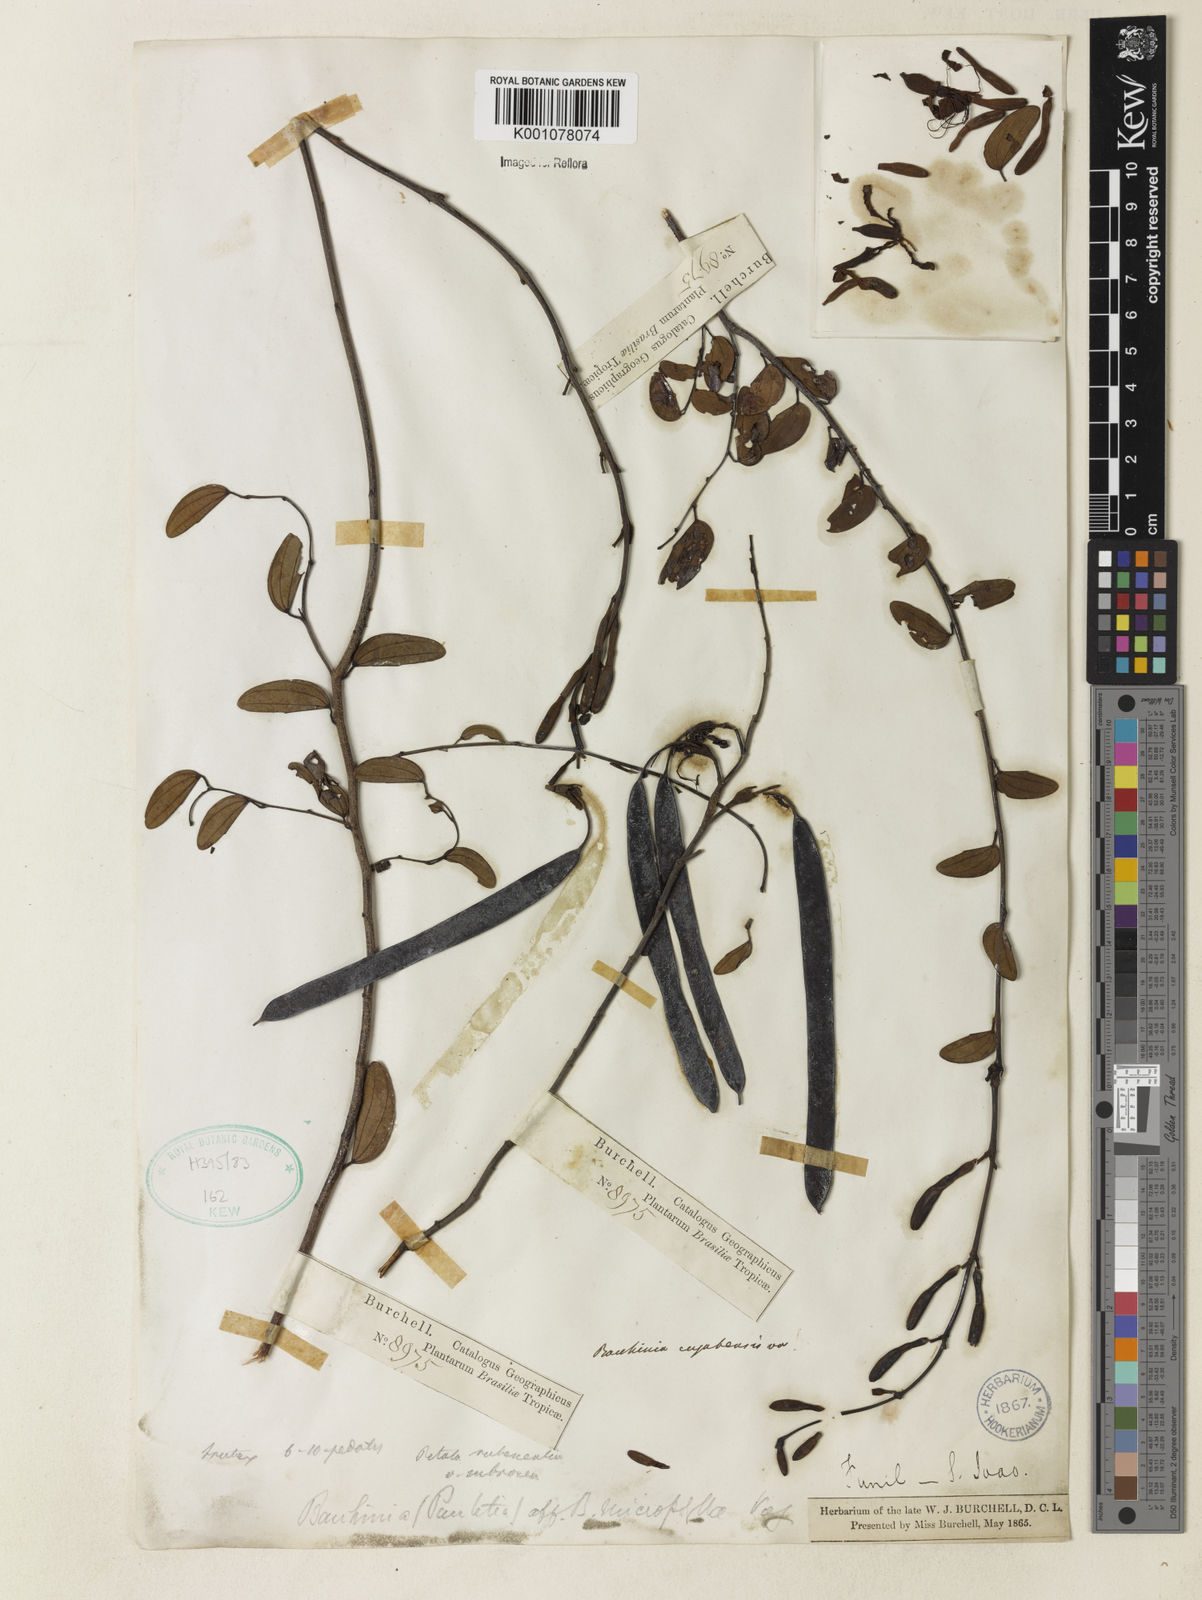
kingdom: Plantae
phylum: Tracheophyta
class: Magnoliopsida
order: Fabales
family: Fabaceae
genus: Bauhinia
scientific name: Bauhinia ungulata
